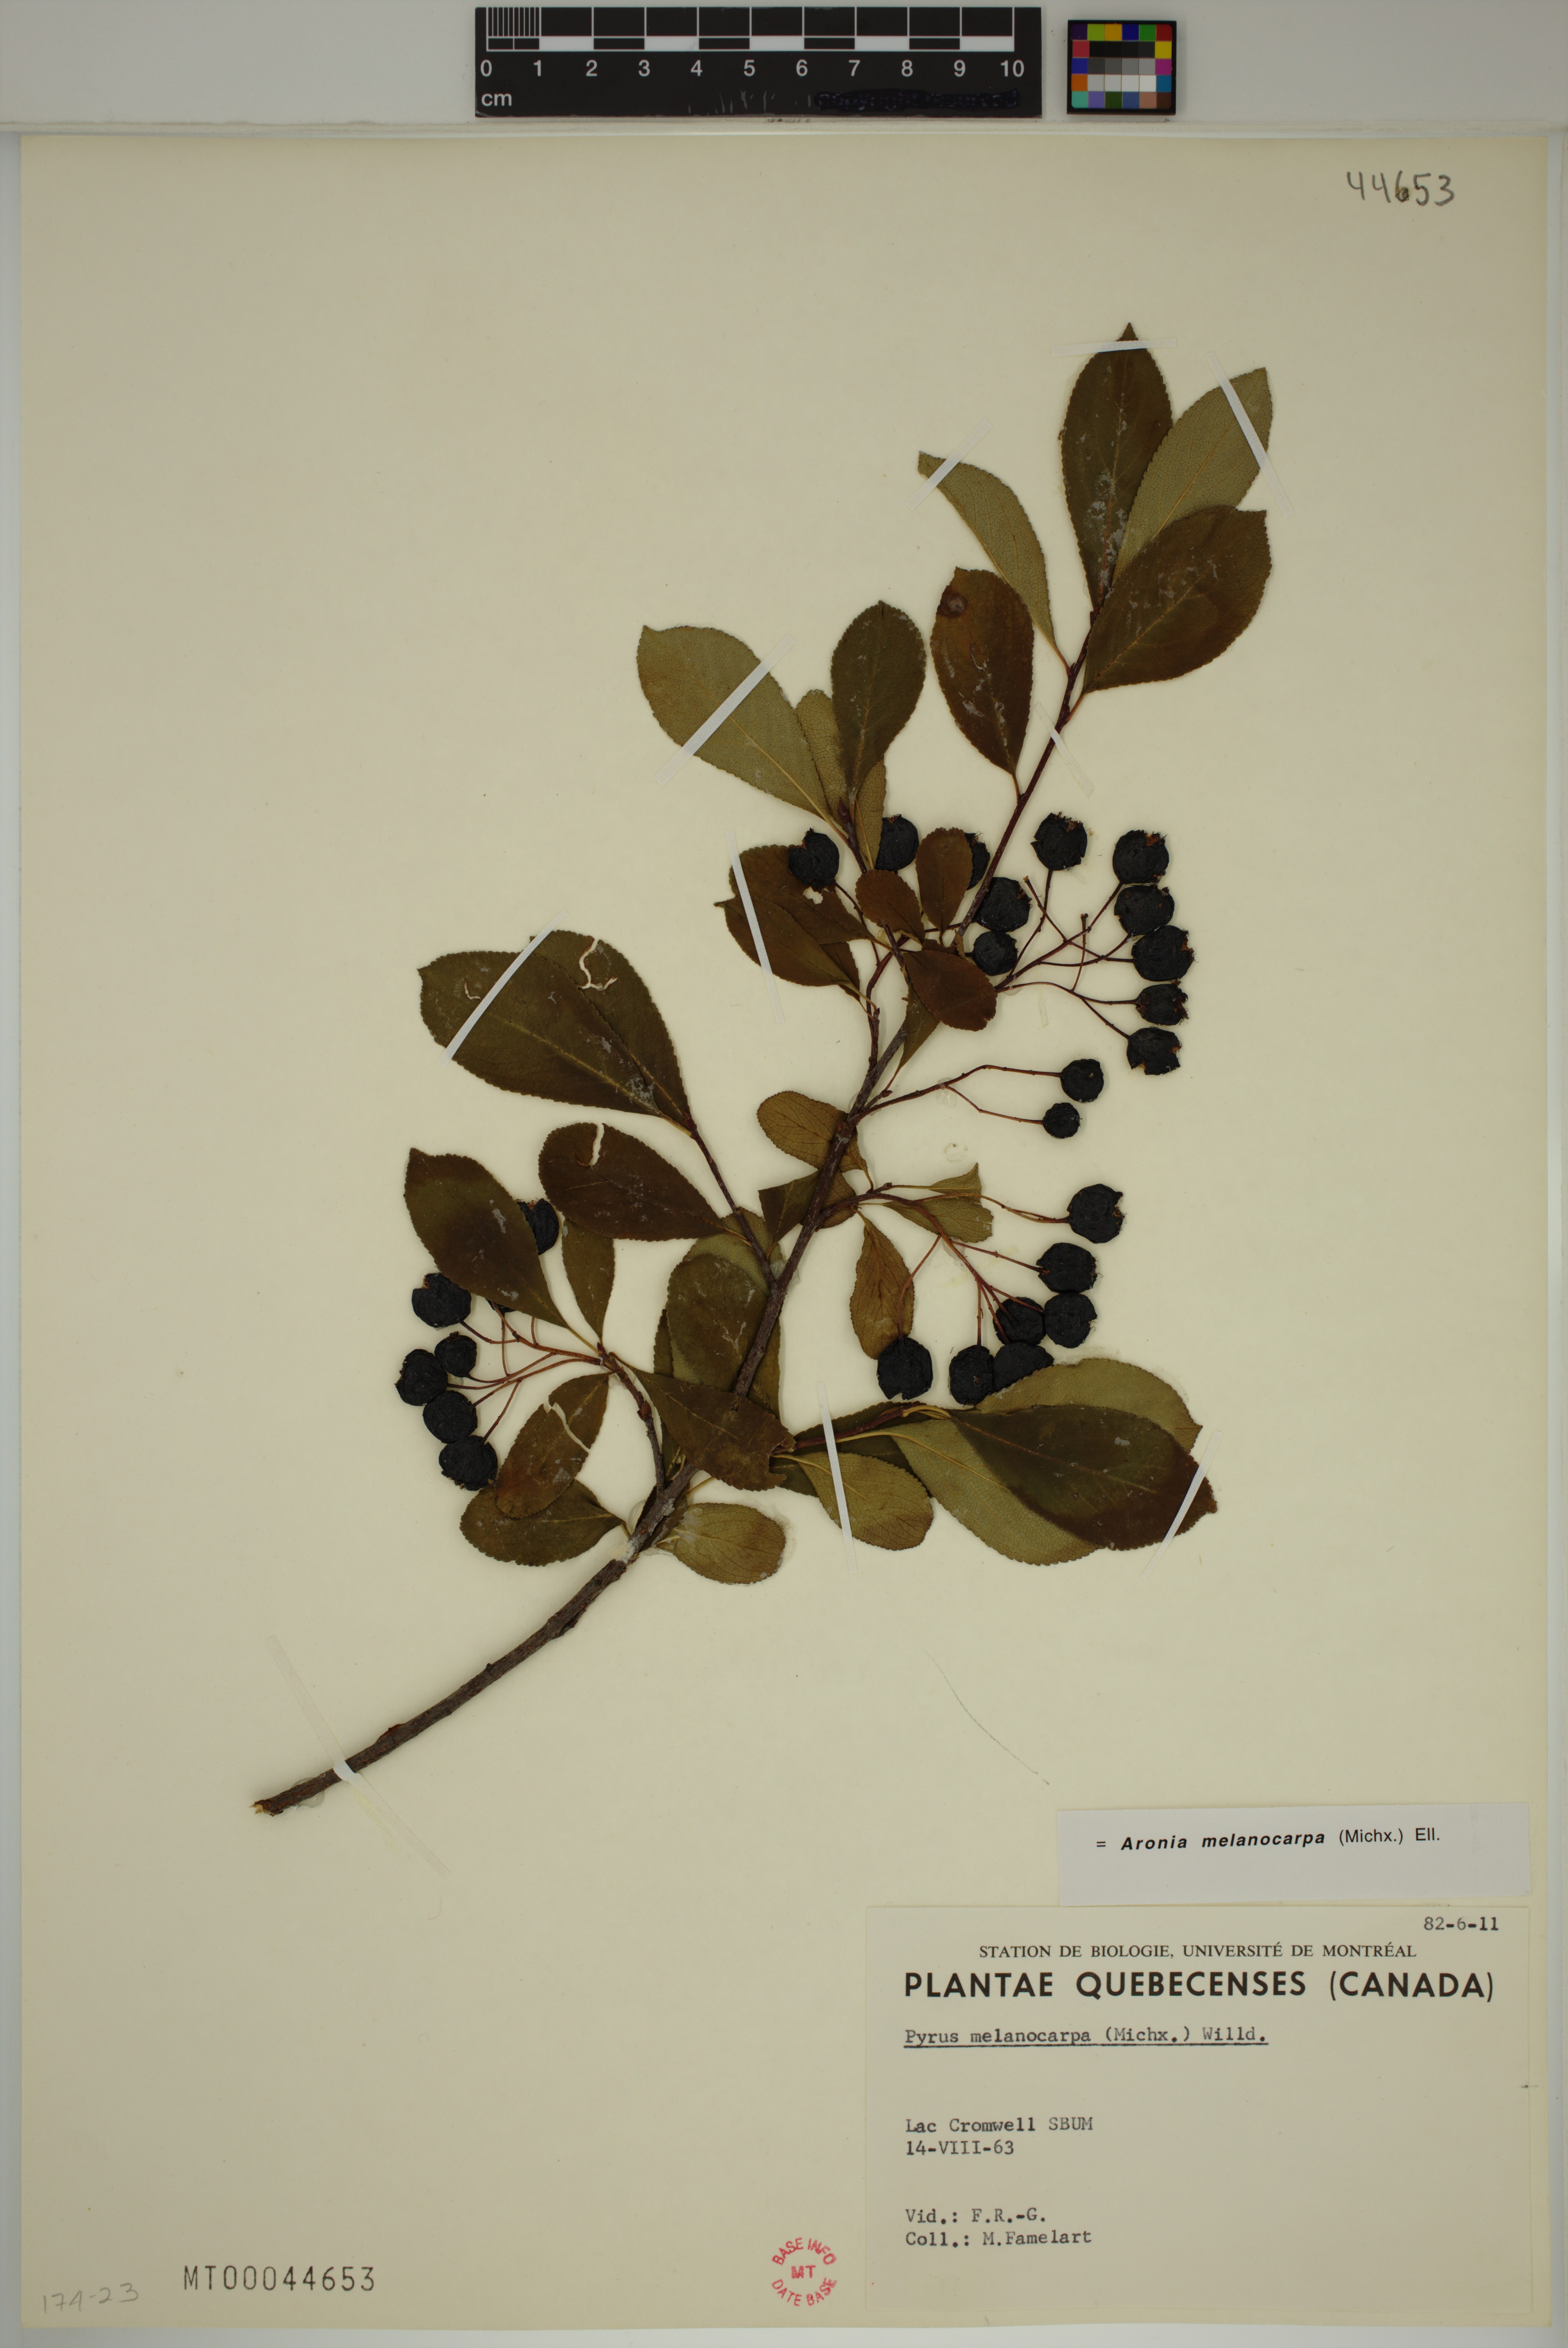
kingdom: Plantae
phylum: Tracheophyta
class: Magnoliopsida
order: Rosales
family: Rosaceae
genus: Aronia
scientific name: Aronia melanocarpa
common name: Black chokeberry
